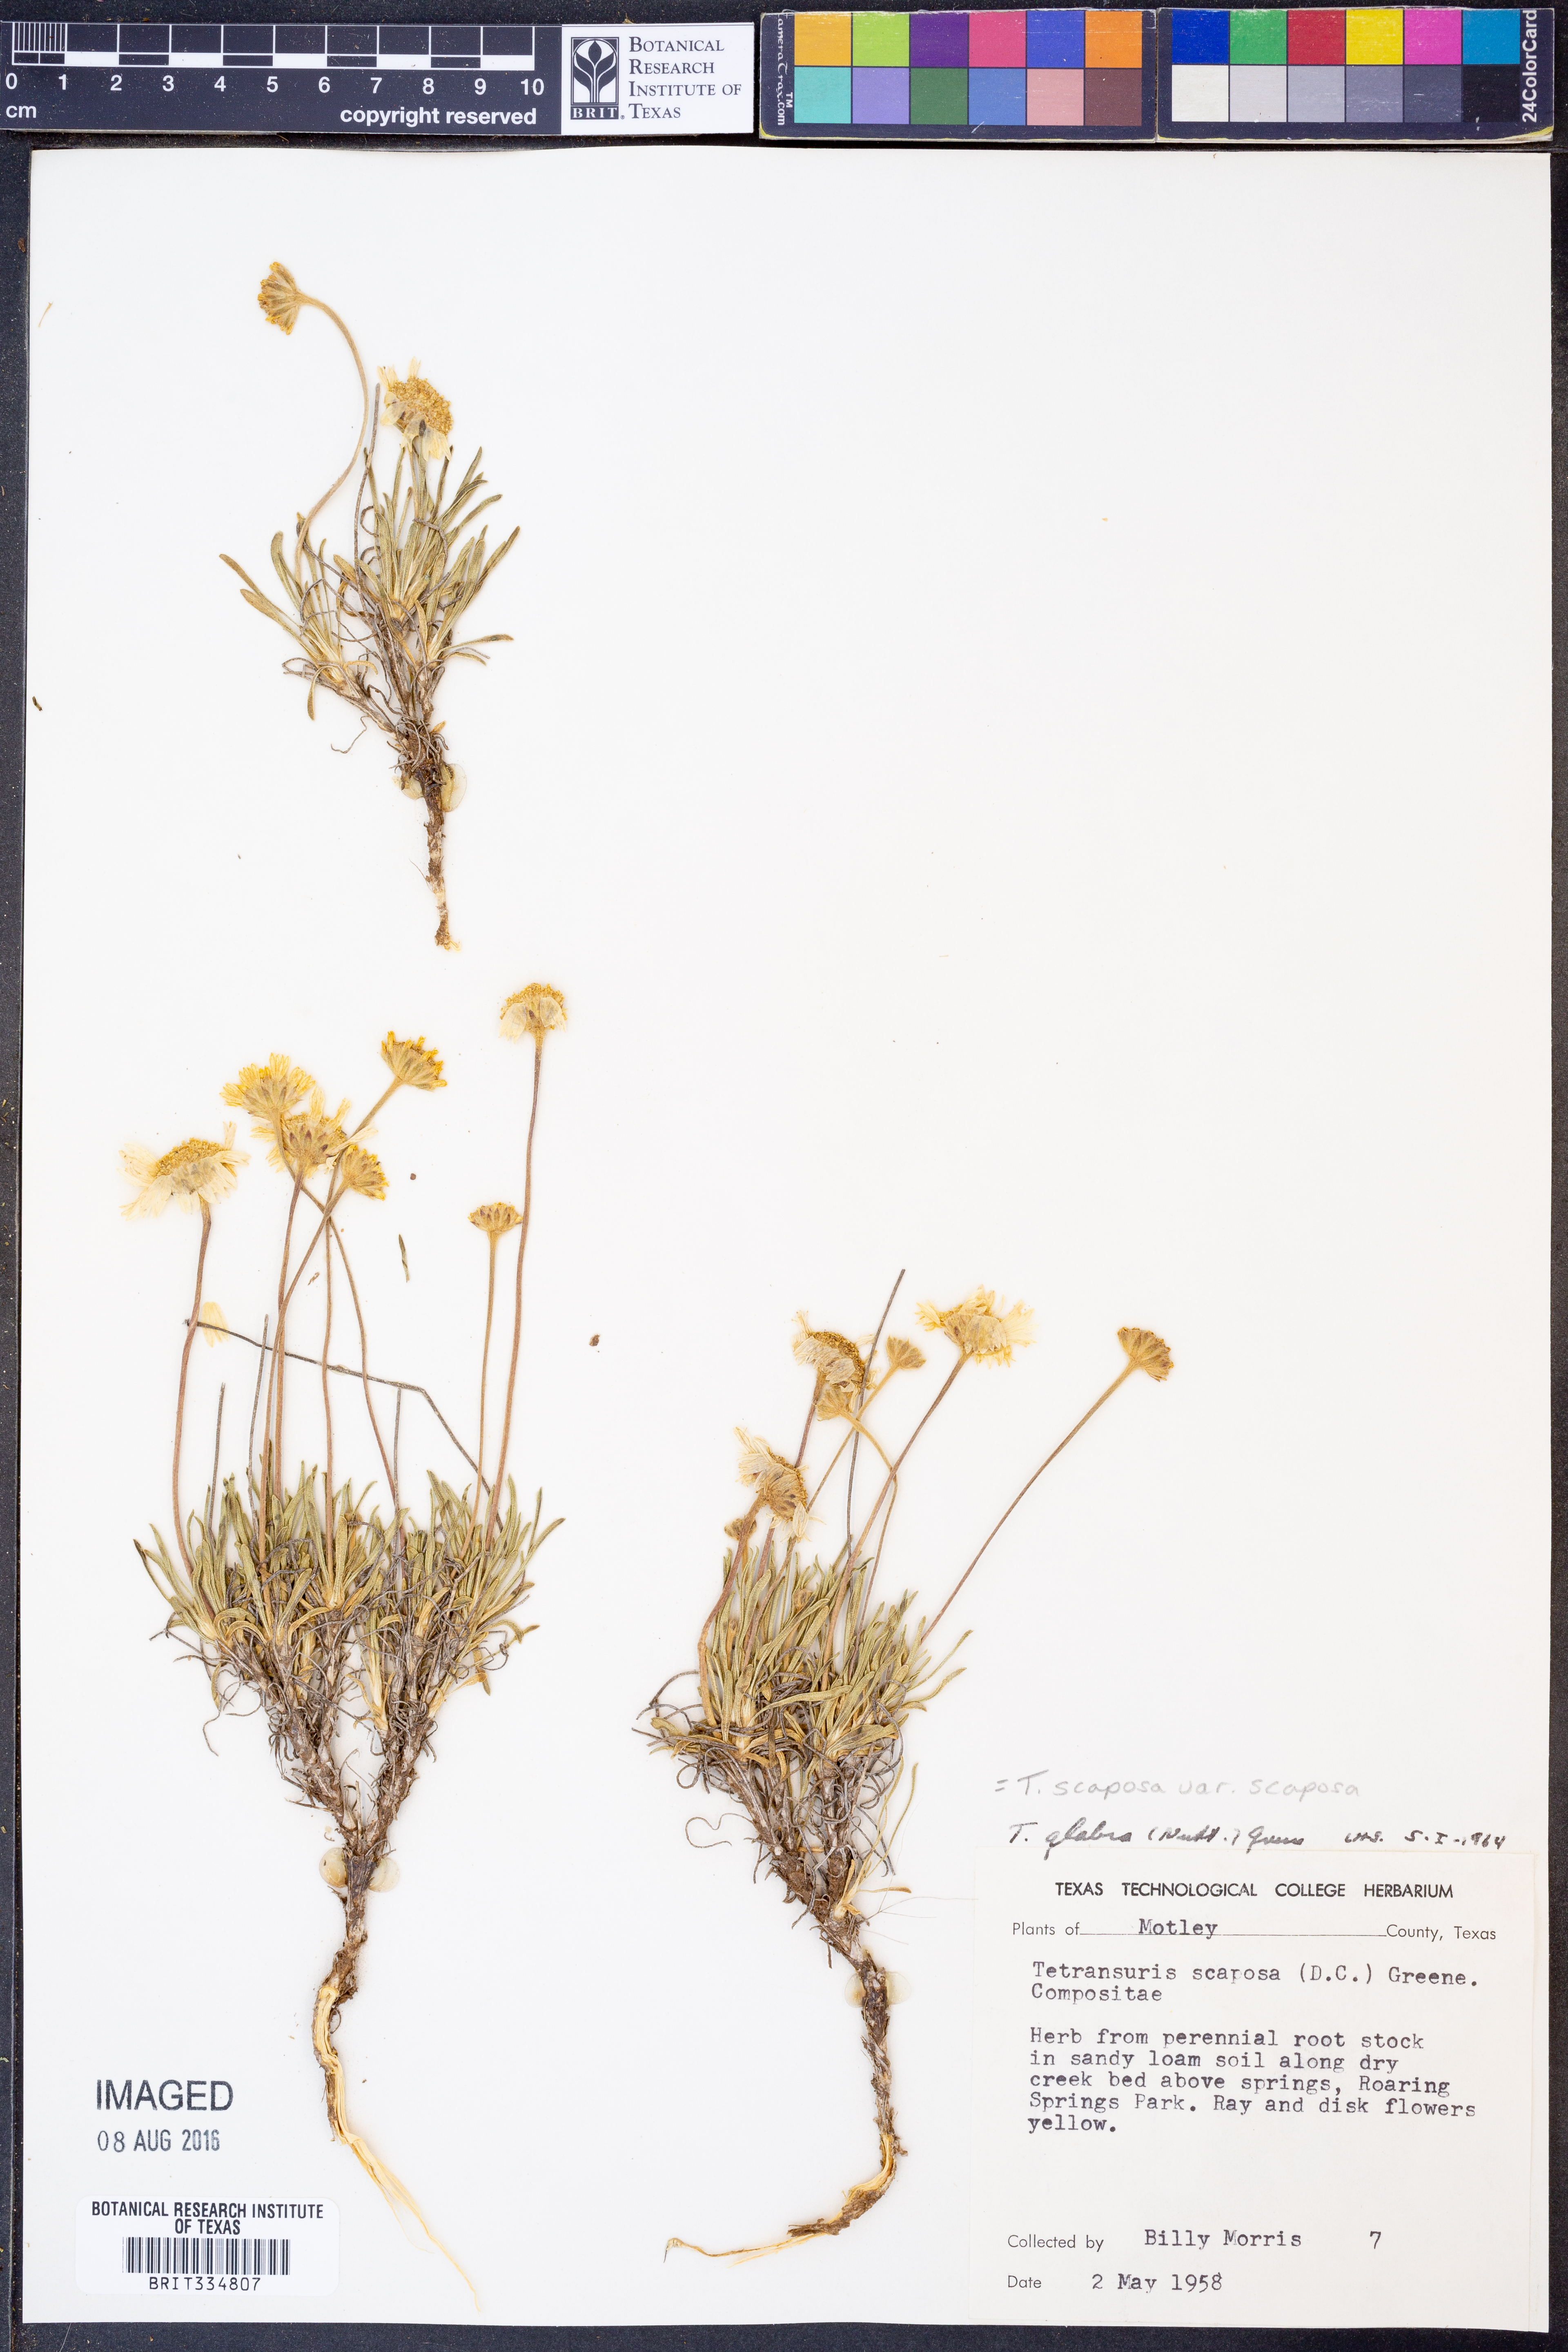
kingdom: Plantae
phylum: Tracheophyta
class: Magnoliopsida
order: Asterales
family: Asteraceae
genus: Tetraneuris
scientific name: Tetraneuris scaposa
